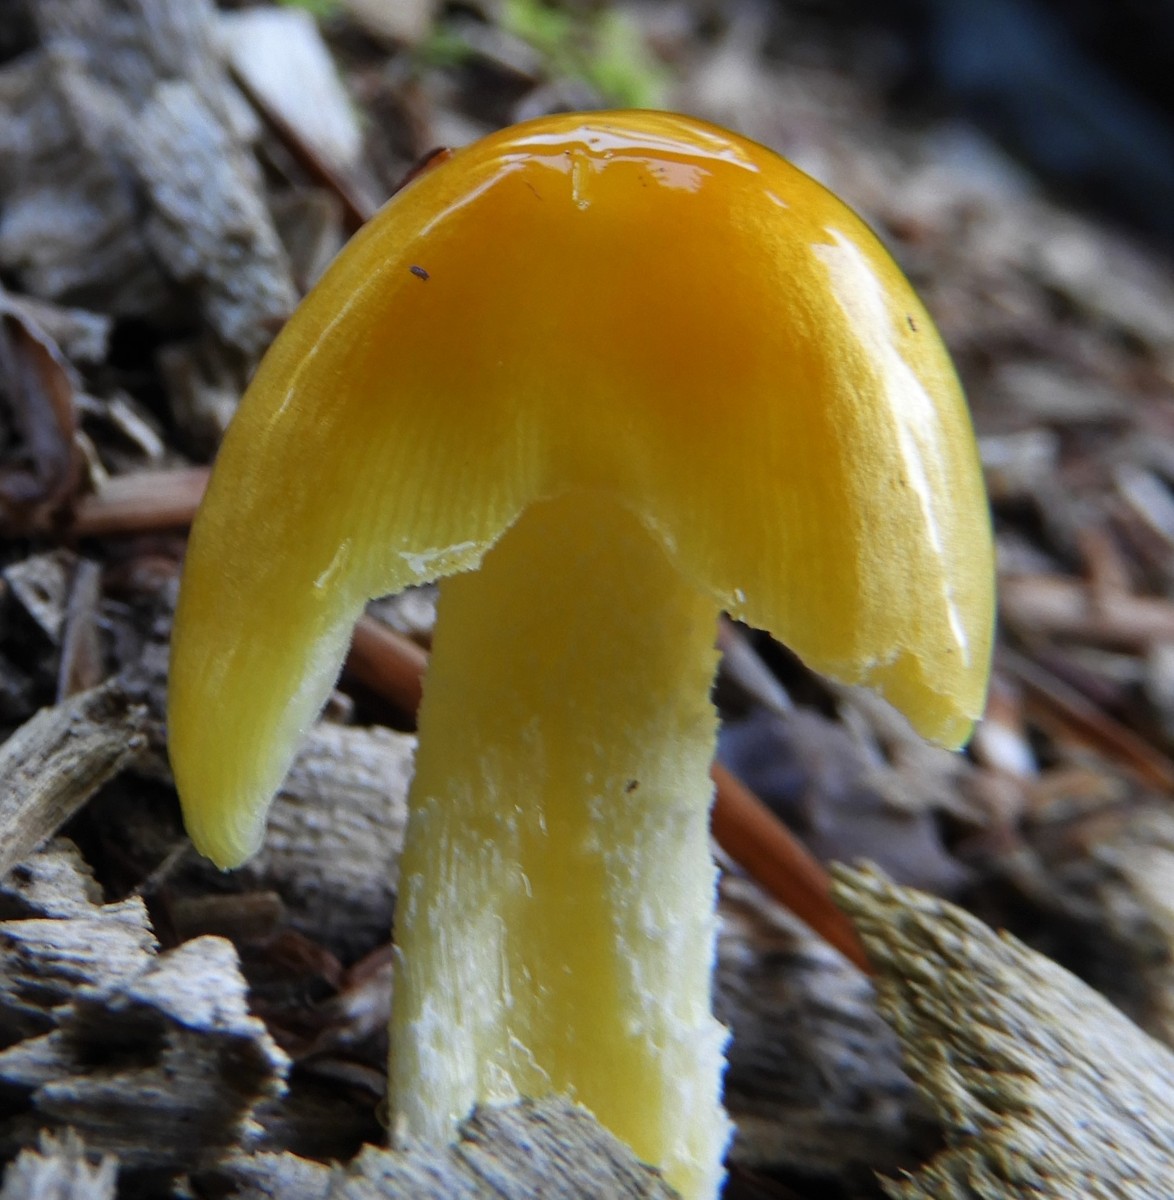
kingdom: Fungi
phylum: Basidiomycota
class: Agaricomycetes
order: Agaricales
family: Bolbitiaceae
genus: Bolbitius
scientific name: Bolbitius titubans
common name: almindelig gulhat
